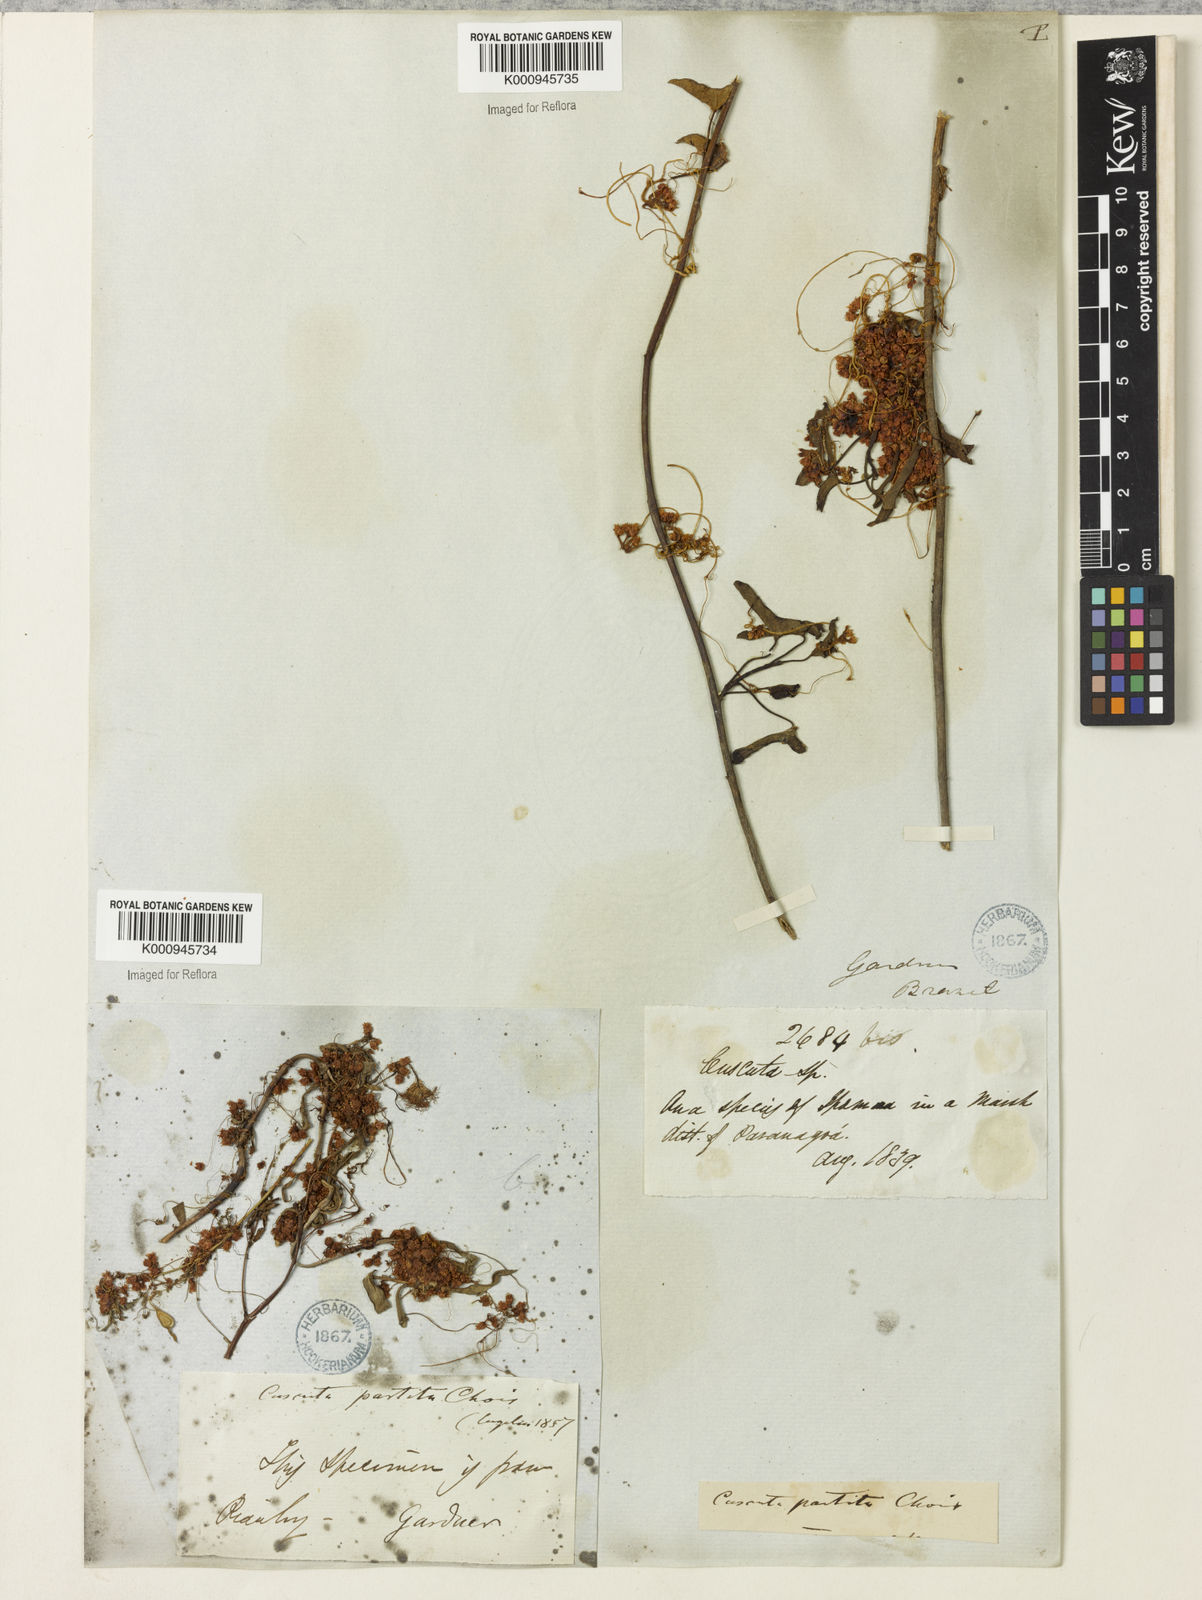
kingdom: Plantae
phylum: Tracheophyta
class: Magnoliopsida
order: Solanales
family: Convolvulaceae
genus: Cuscuta
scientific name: Cuscuta partita
